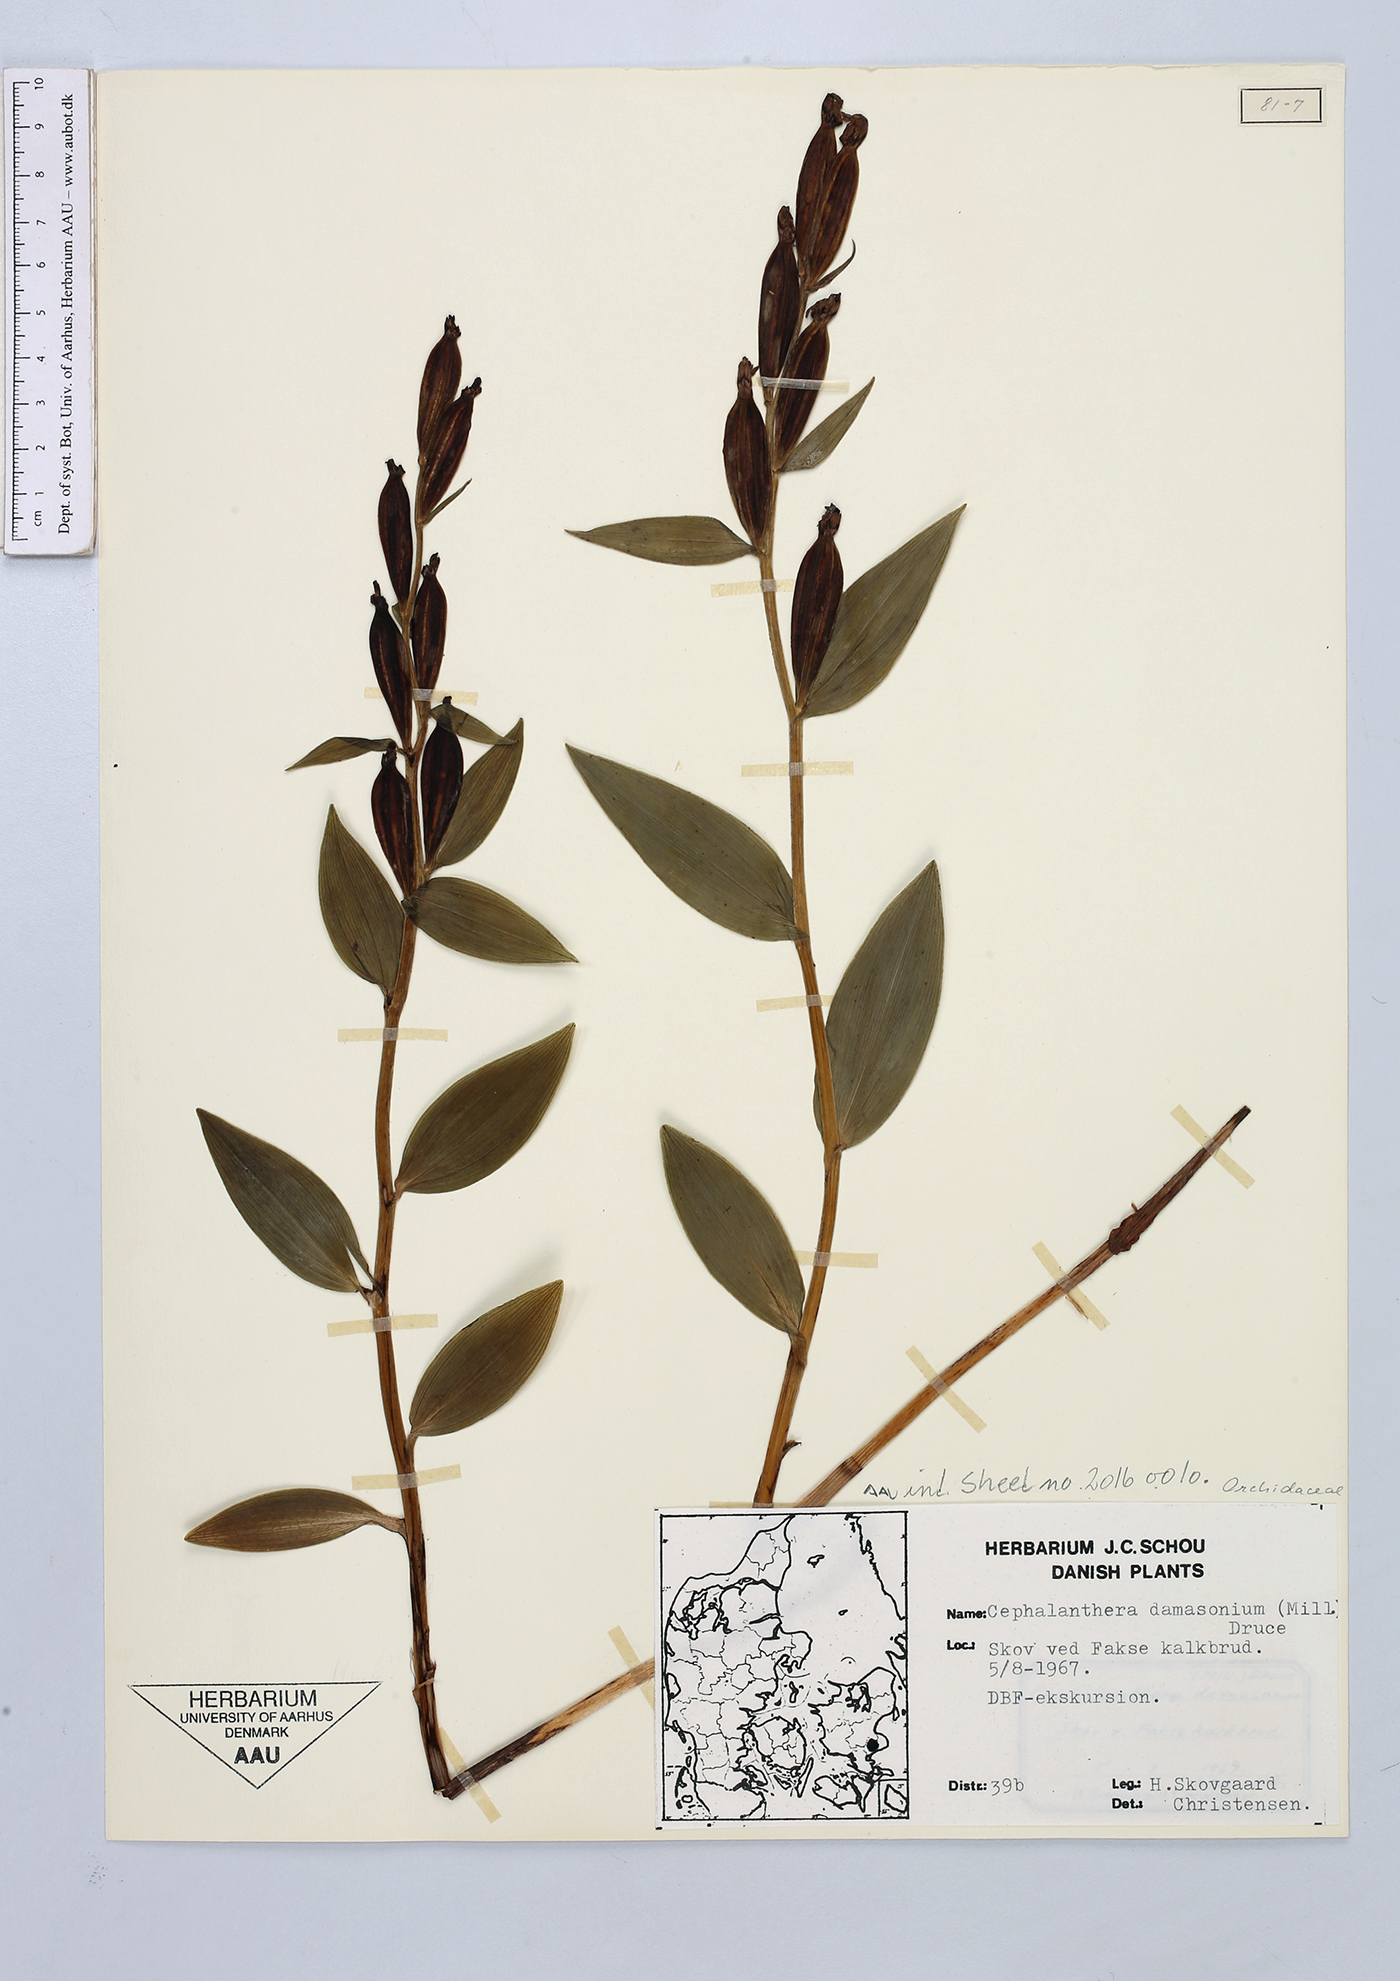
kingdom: Plantae
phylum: Tracheophyta
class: Liliopsida
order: Asparagales
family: Orchidaceae
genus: Cephalanthera
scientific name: Cephalanthera damasonium
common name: White helleborine
